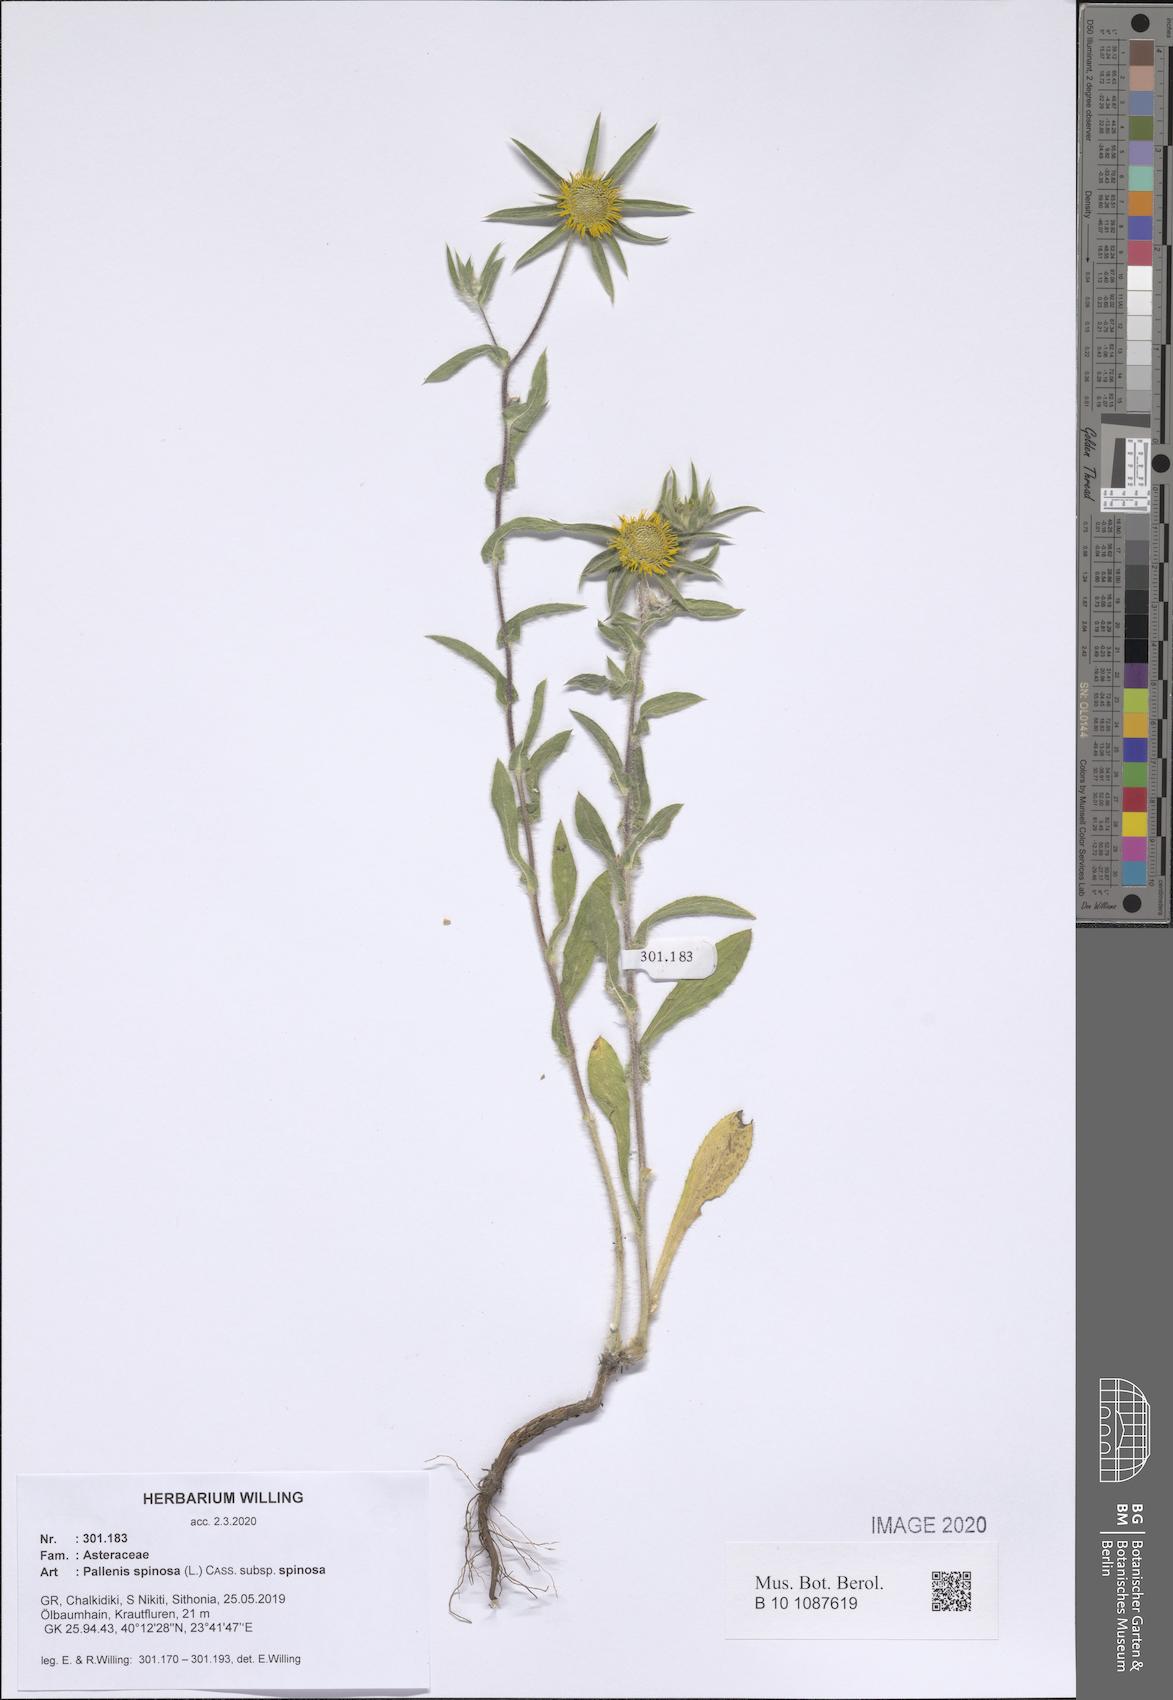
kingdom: Plantae
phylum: Tracheophyta
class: Magnoliopsida
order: Asterales
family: Asteraceae
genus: Pallenis
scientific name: Pallenis spinosa
